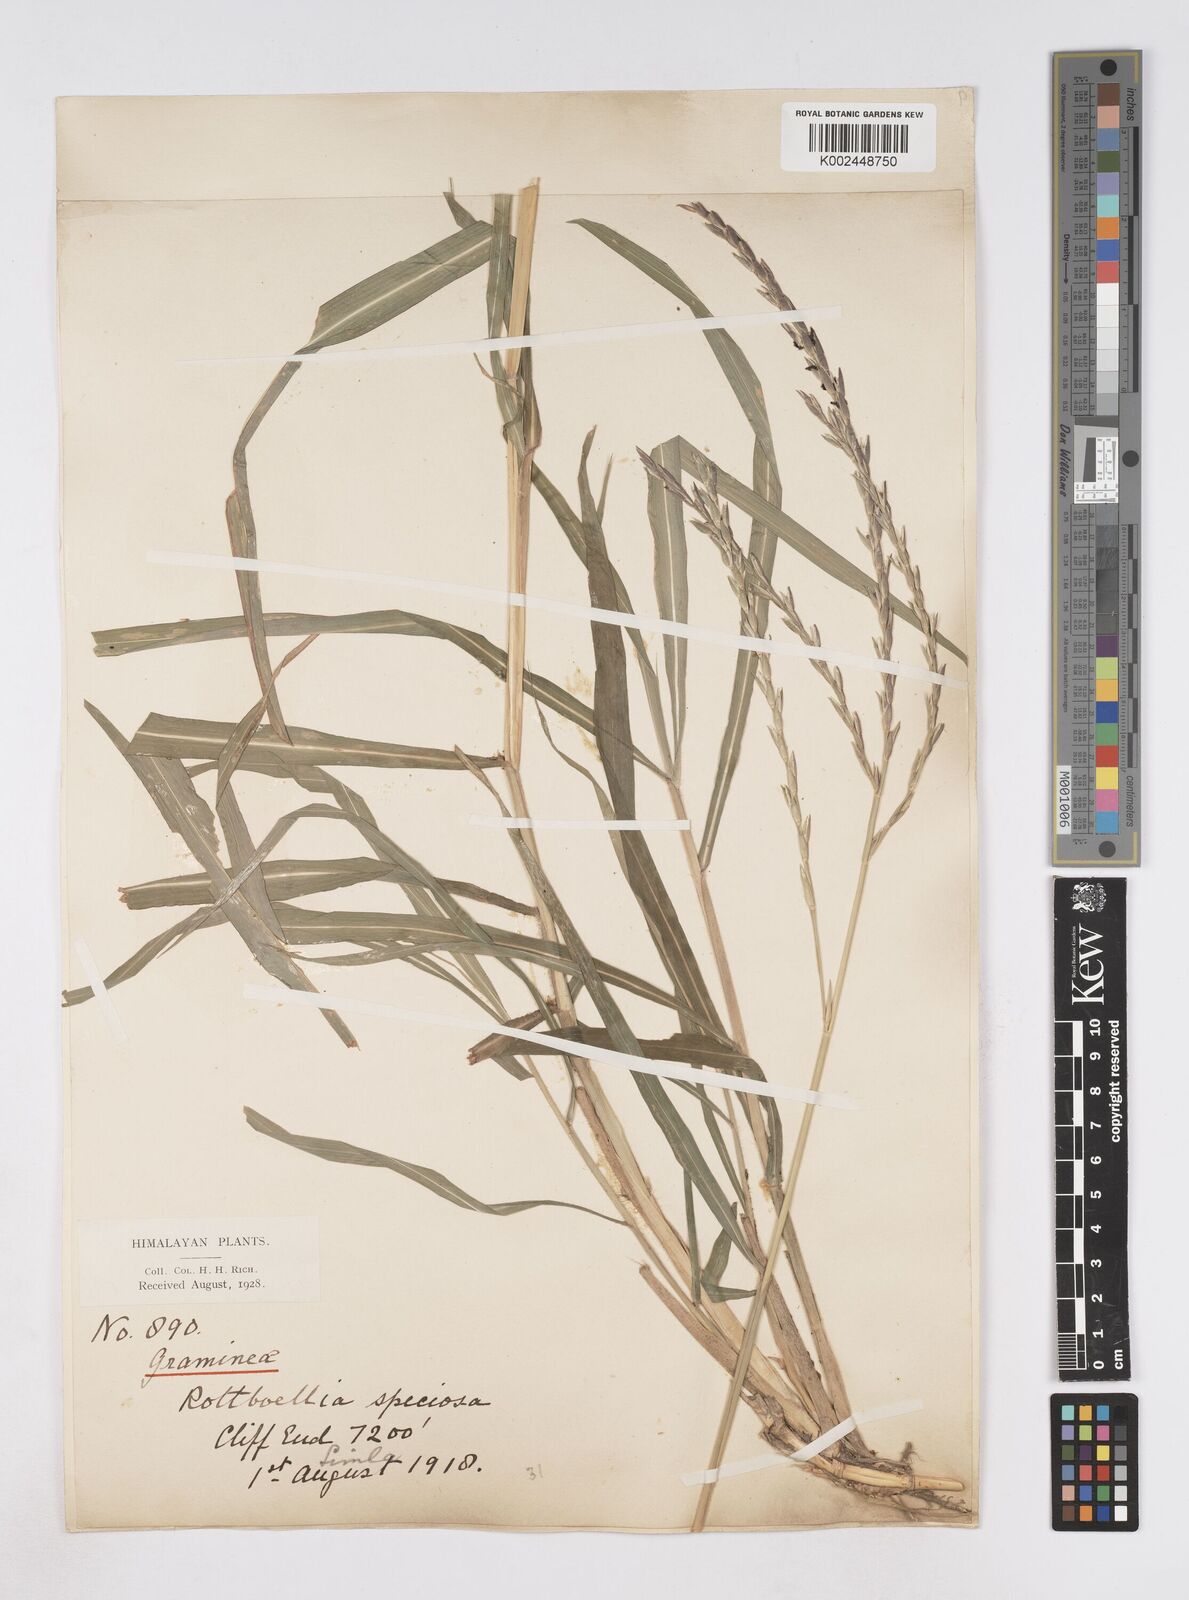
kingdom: Plantae
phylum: Tracheophyta
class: Liliopsida
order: Poales
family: Poaceae
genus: Phacelurus
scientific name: Phacelurus speciosus
